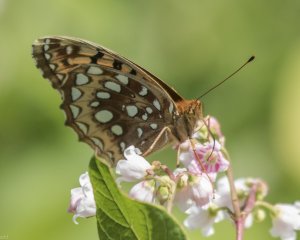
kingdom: Animalia
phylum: Arthropoda
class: Insecta
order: Lepidoptera
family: Nymphalidae
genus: Speyeria
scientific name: Speyeria cybele
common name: Great Spangled Fritillary
